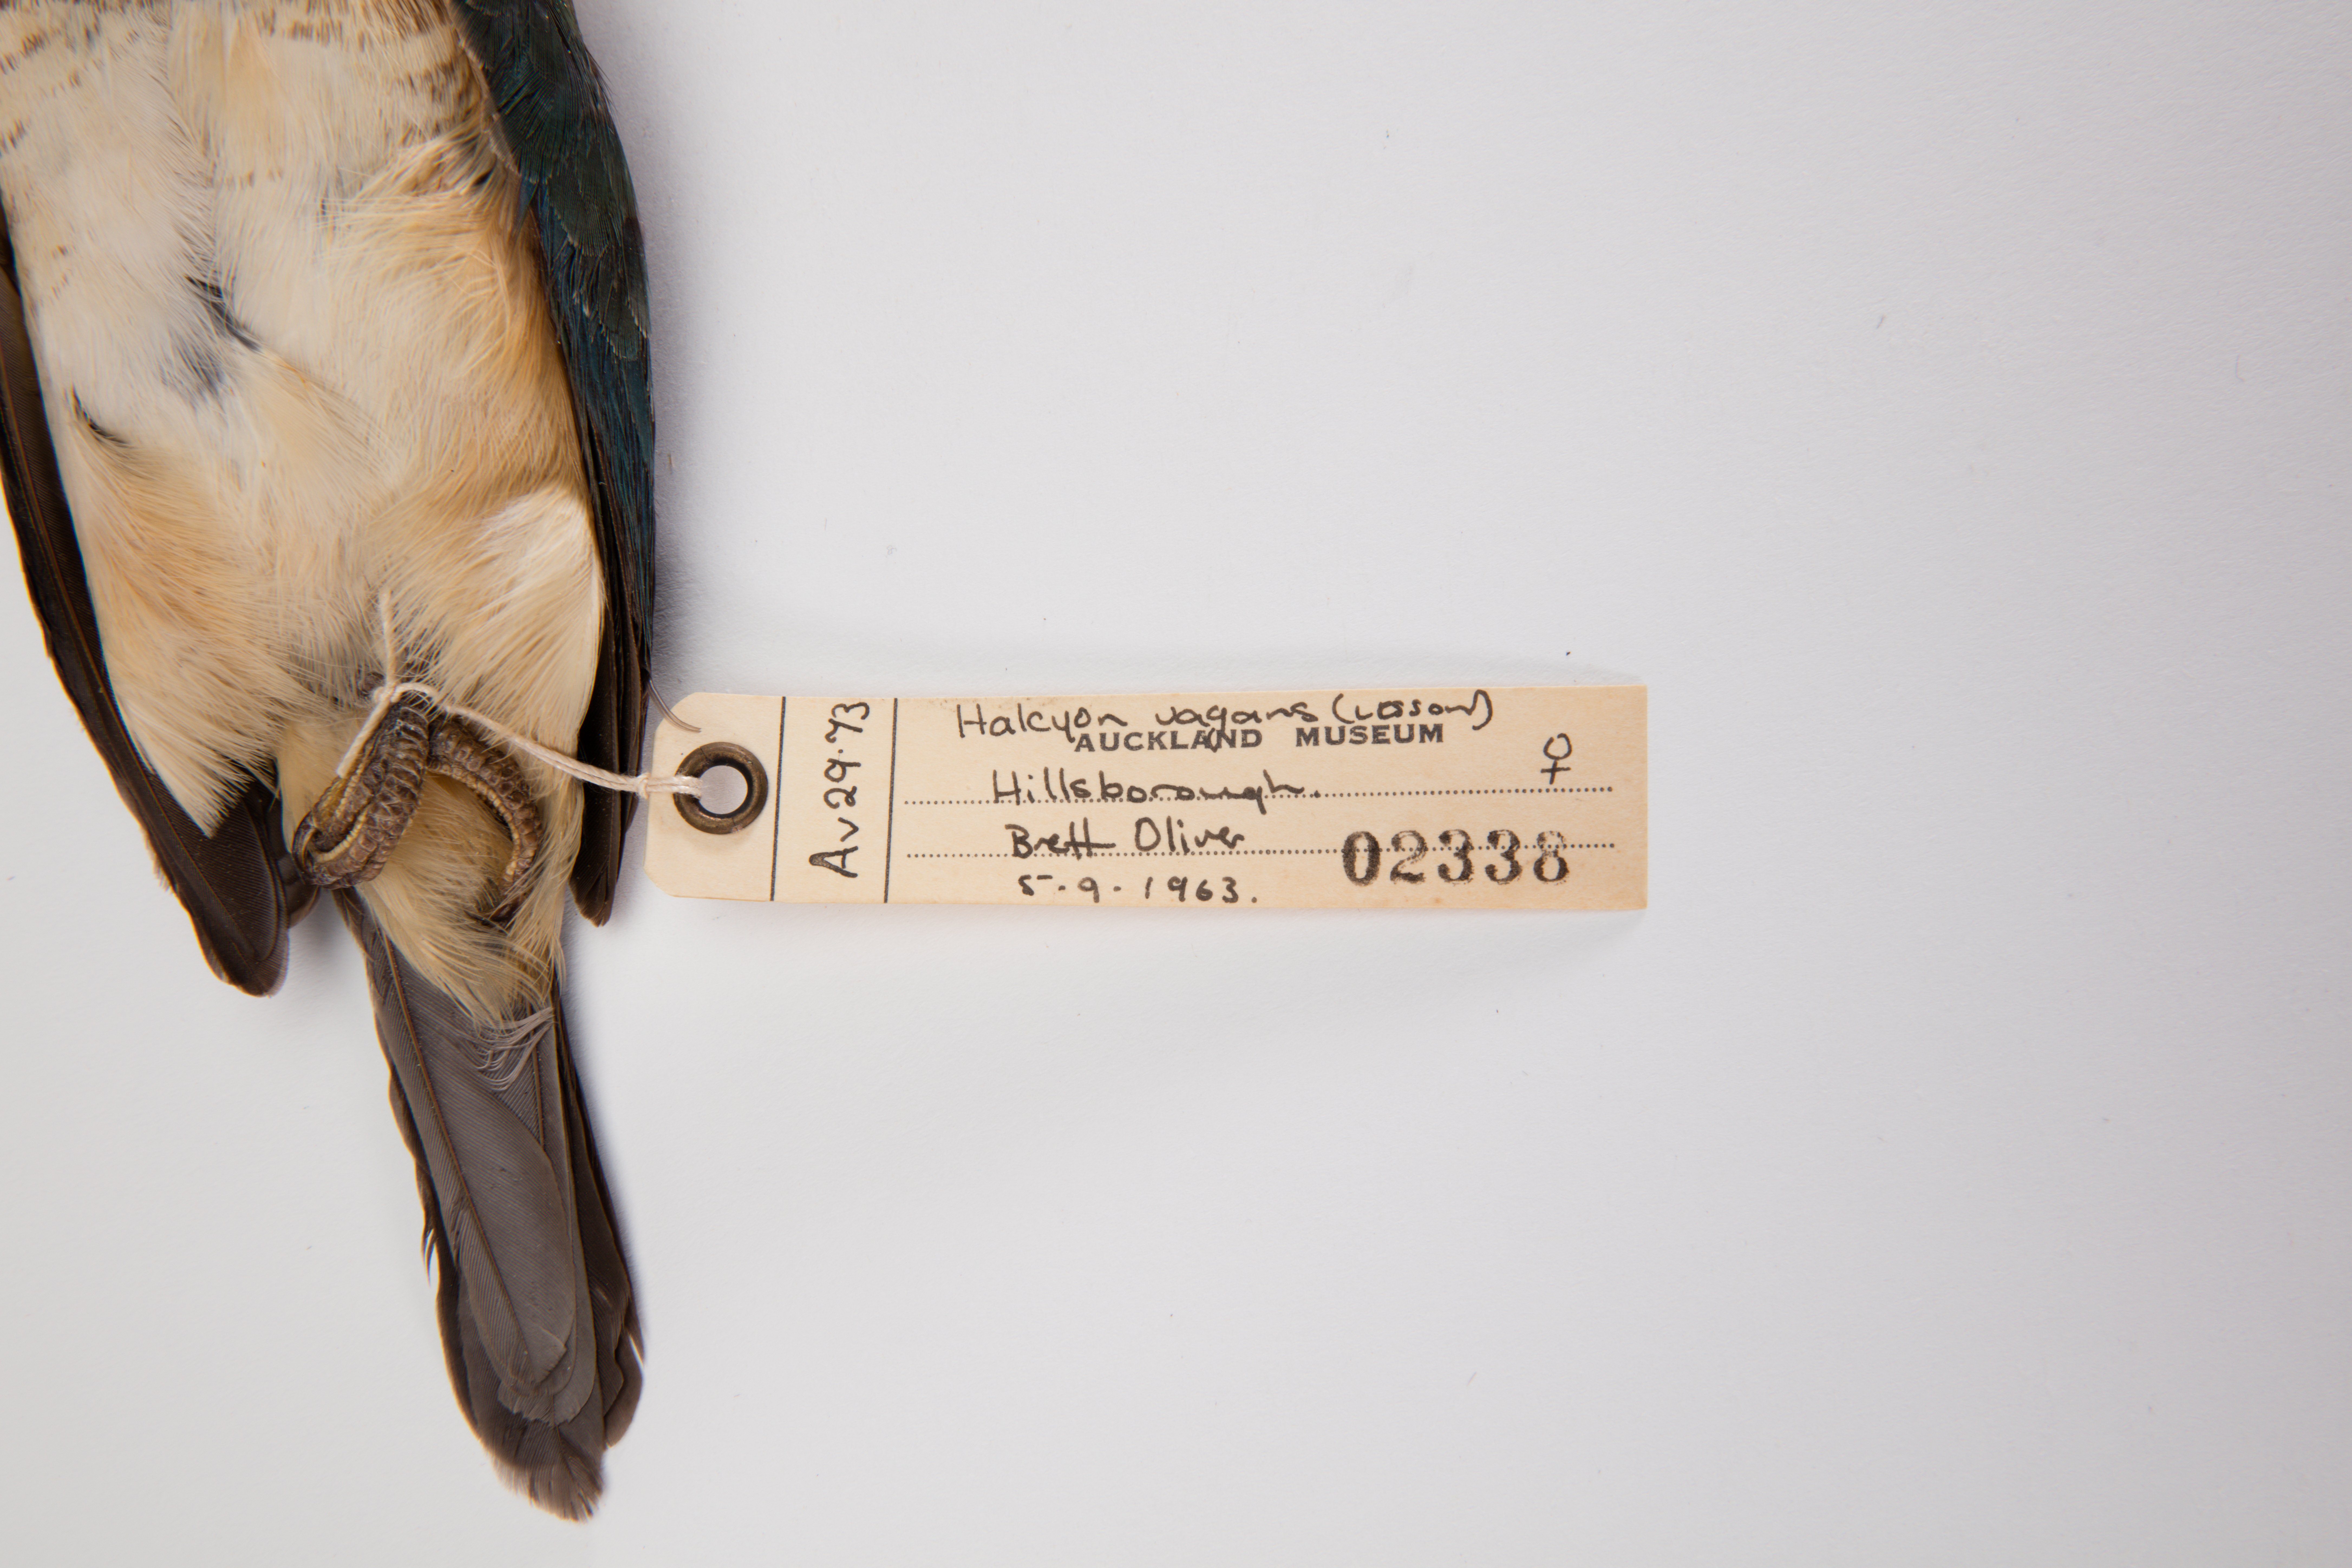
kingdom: Animalia
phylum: Chordata
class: Aves
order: Coraciiformes
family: Alcedinidae
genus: Todiramphus
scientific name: Todiramphus sanctus
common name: Sacred kingfisher
